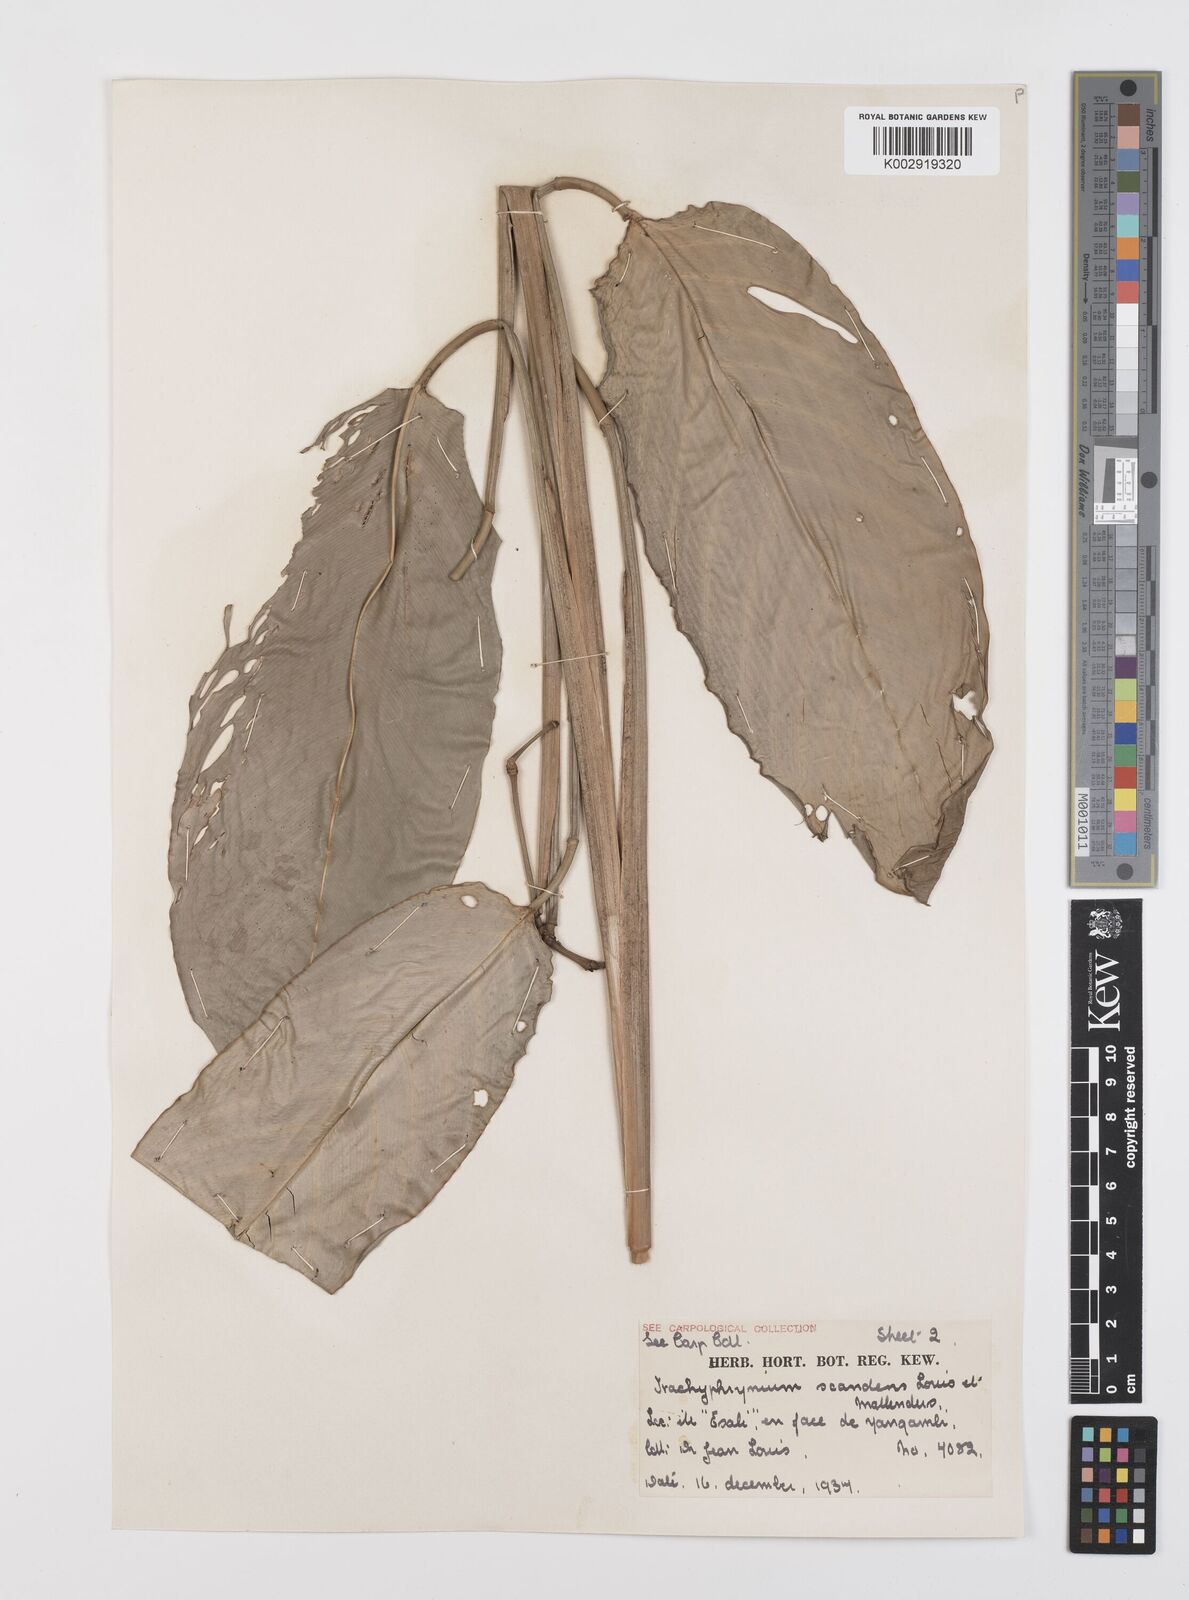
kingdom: Plantae
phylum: Tracheophyta
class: Liliopsida
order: Zingiberales
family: Marantaceae
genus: Hypselodelphys
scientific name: Hypselodelphys scandens
